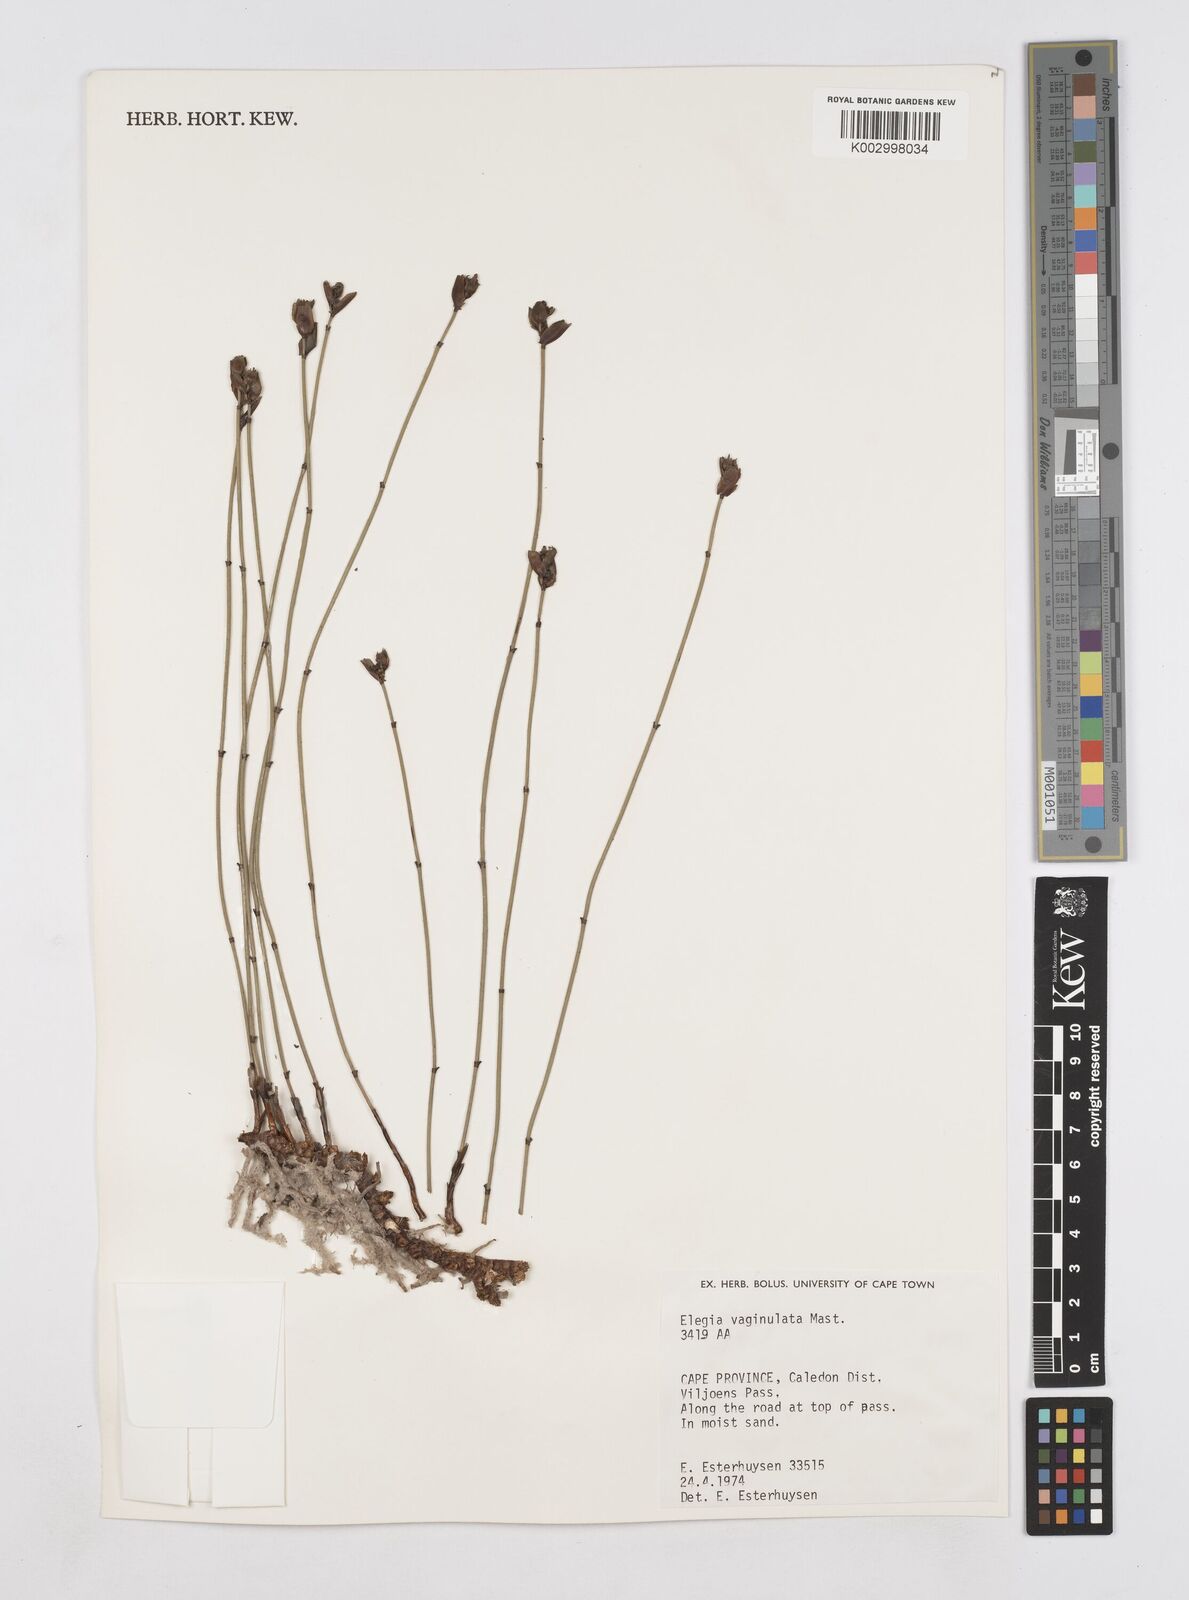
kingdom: Plantae
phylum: Tracheophyta
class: Liliopsida
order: Poales
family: Restionaceae
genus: Elegia
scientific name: Elegia vaginulata
